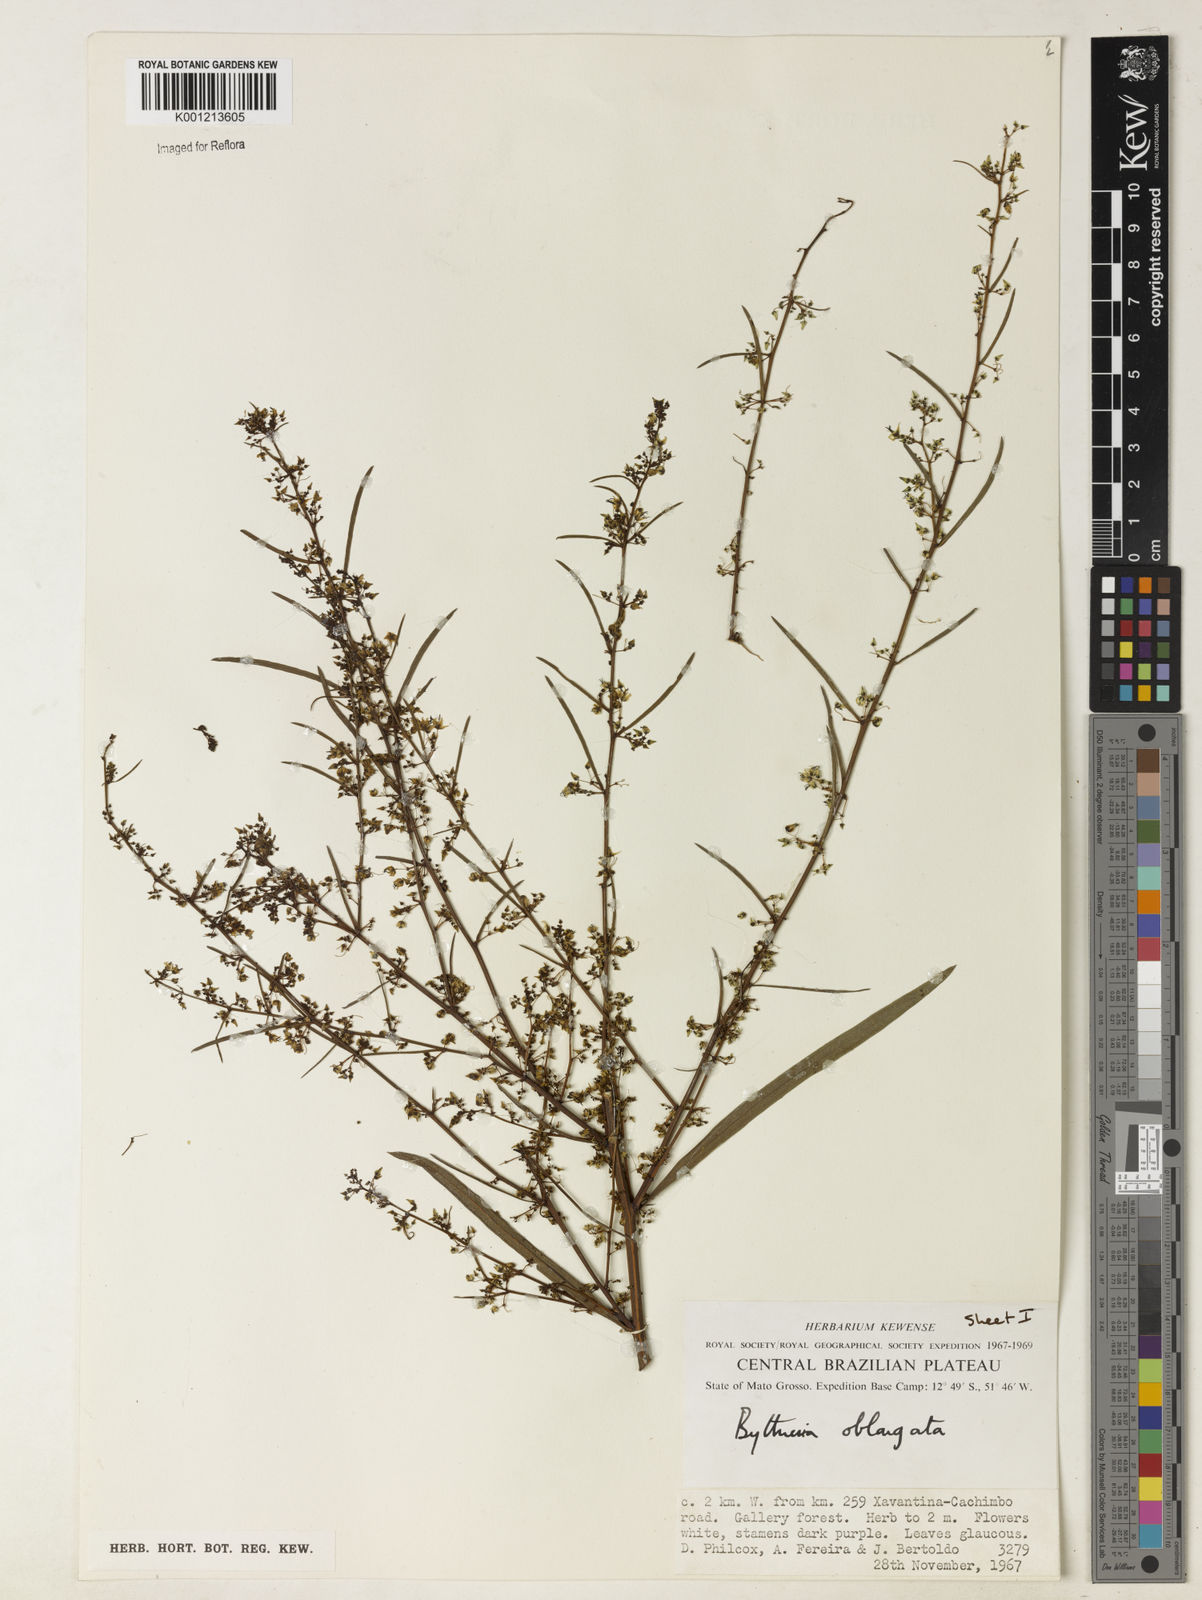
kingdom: Plantae
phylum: Tracheophyta
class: Magnoliopsida
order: Malvales
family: Malvaceae
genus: Byttneria
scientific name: Byttneria oblongata
